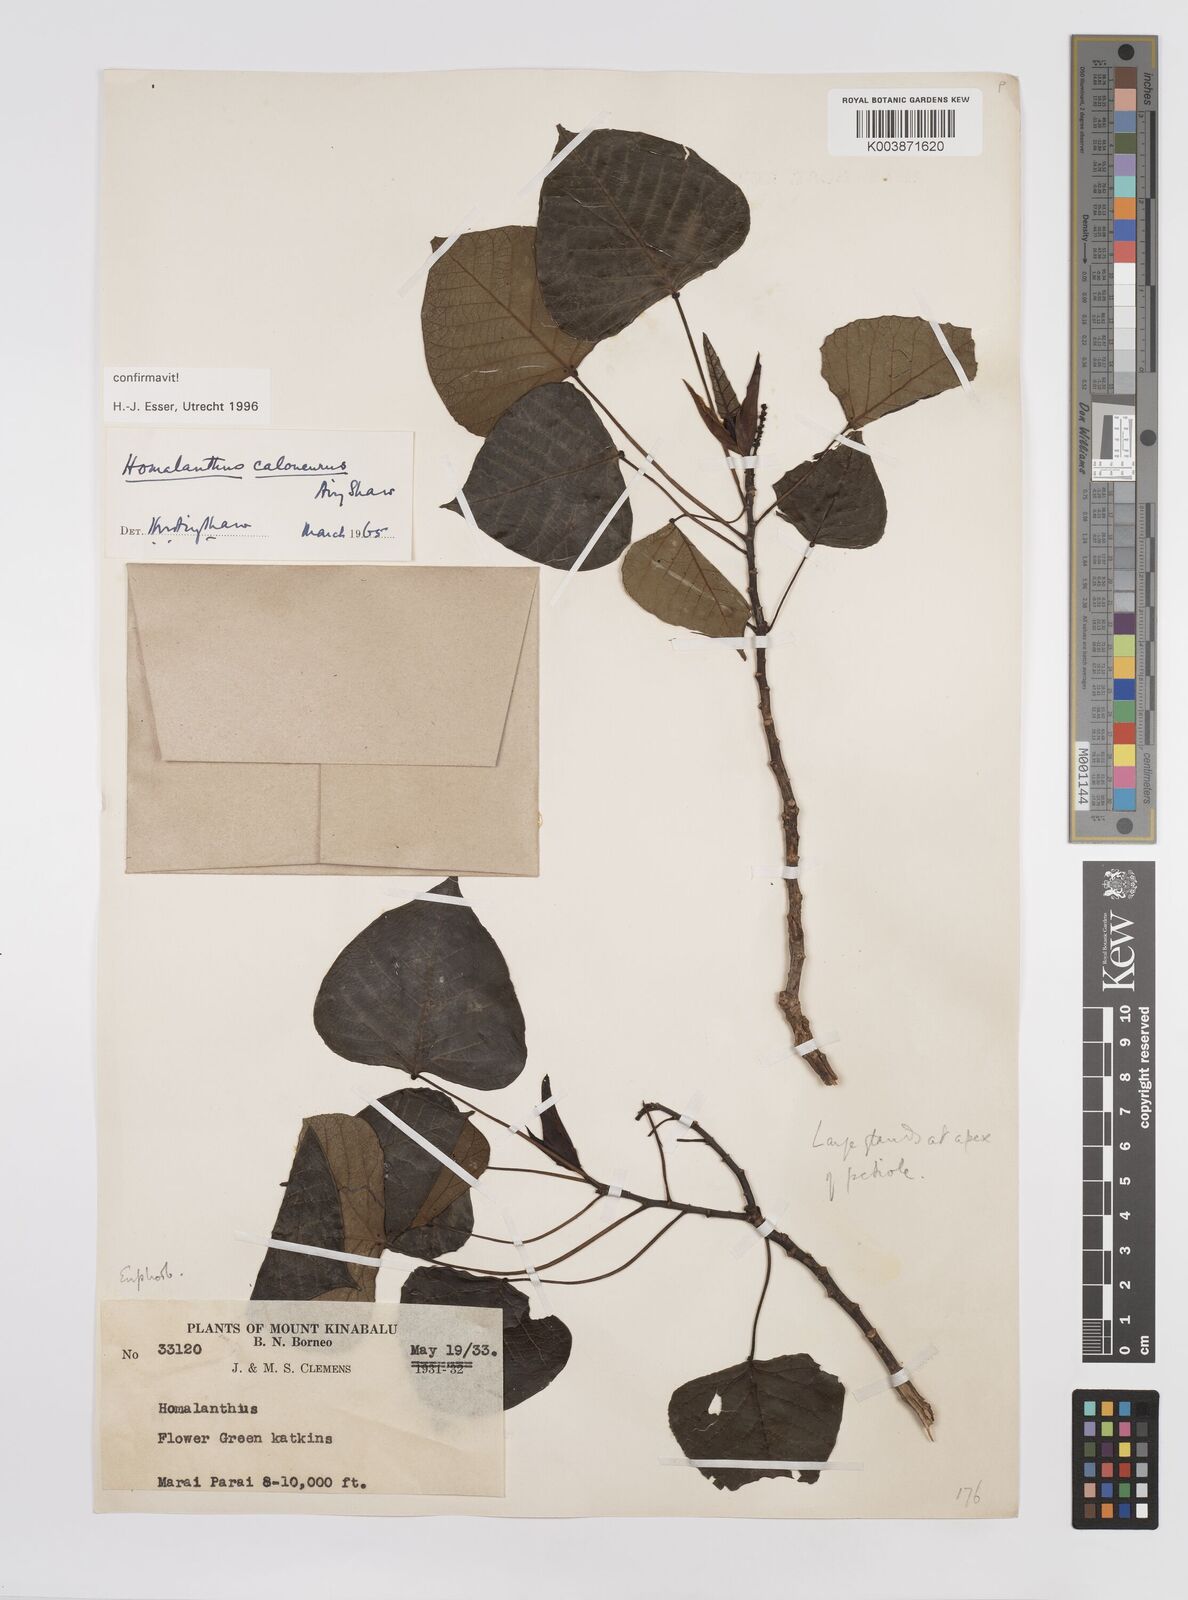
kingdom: Plantae
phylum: Tracheophyta
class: Magnoliopsida
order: Malpighiales
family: Euphorbiaceae
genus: Homalanthus
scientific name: Homalanthus caloneurus
